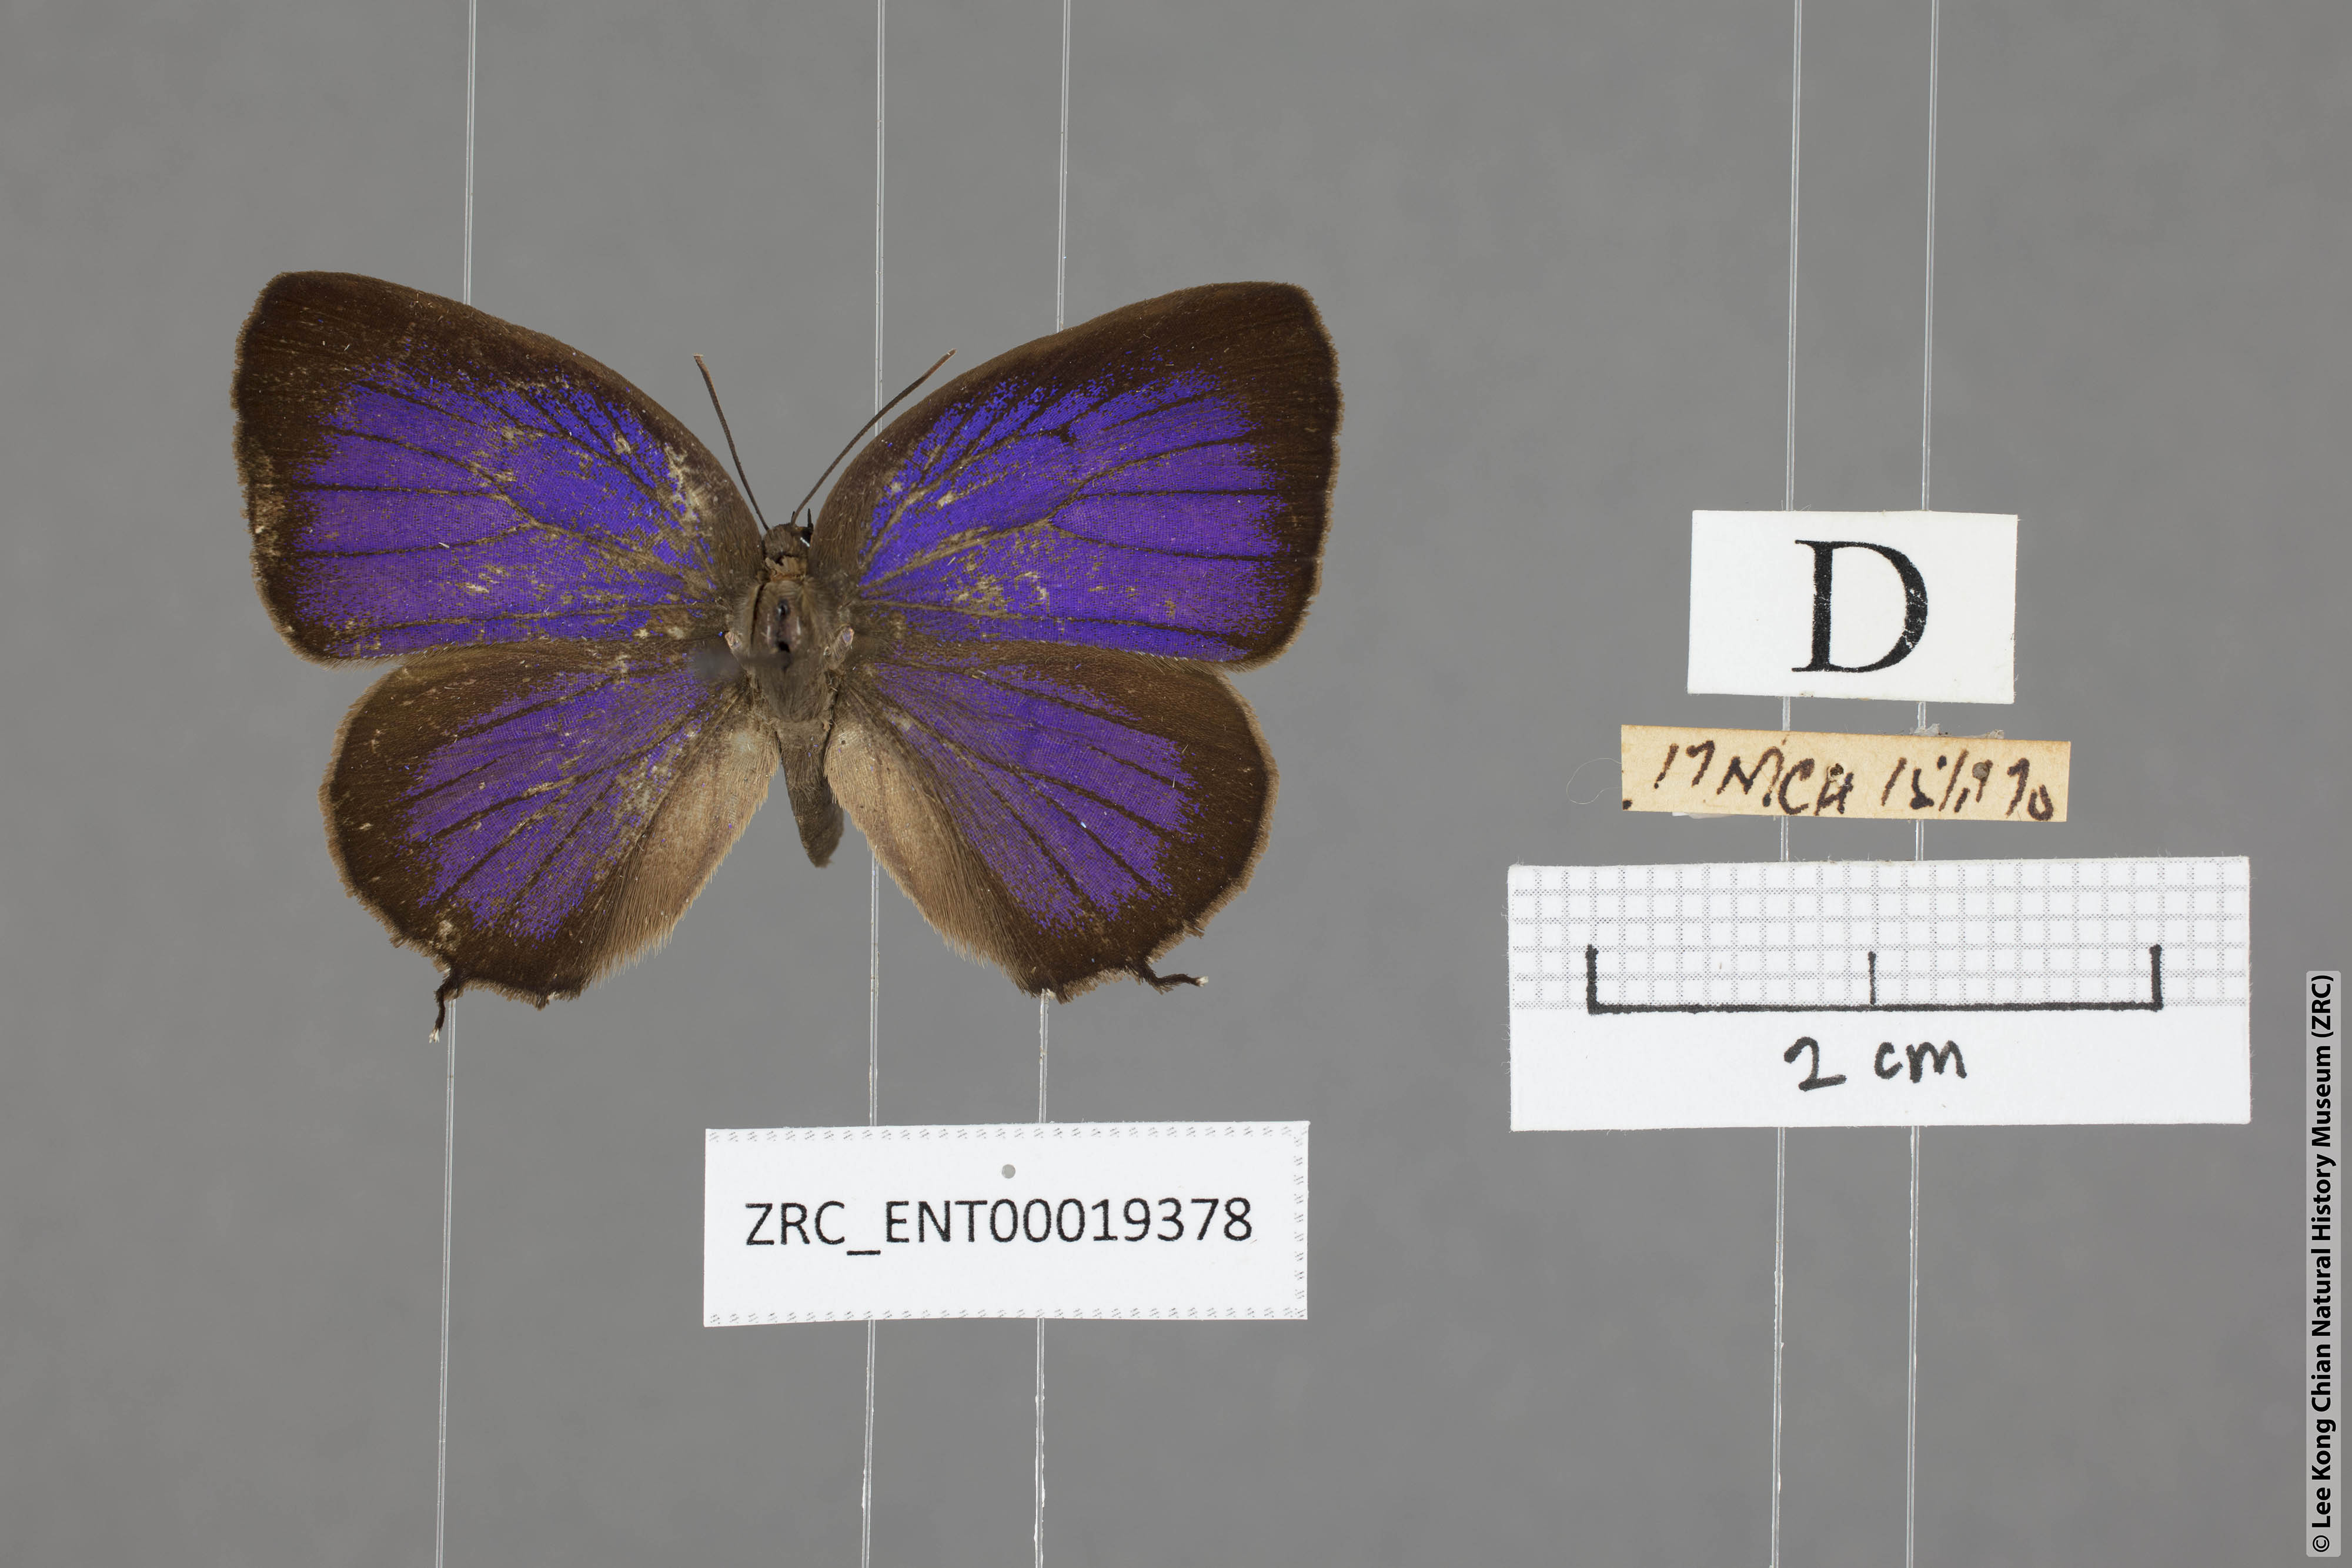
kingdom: Animalia
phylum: Arthropoda
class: Insecta
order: Lepidoptera
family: Lycaenidae
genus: Arhopala
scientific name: Arhopala delta
